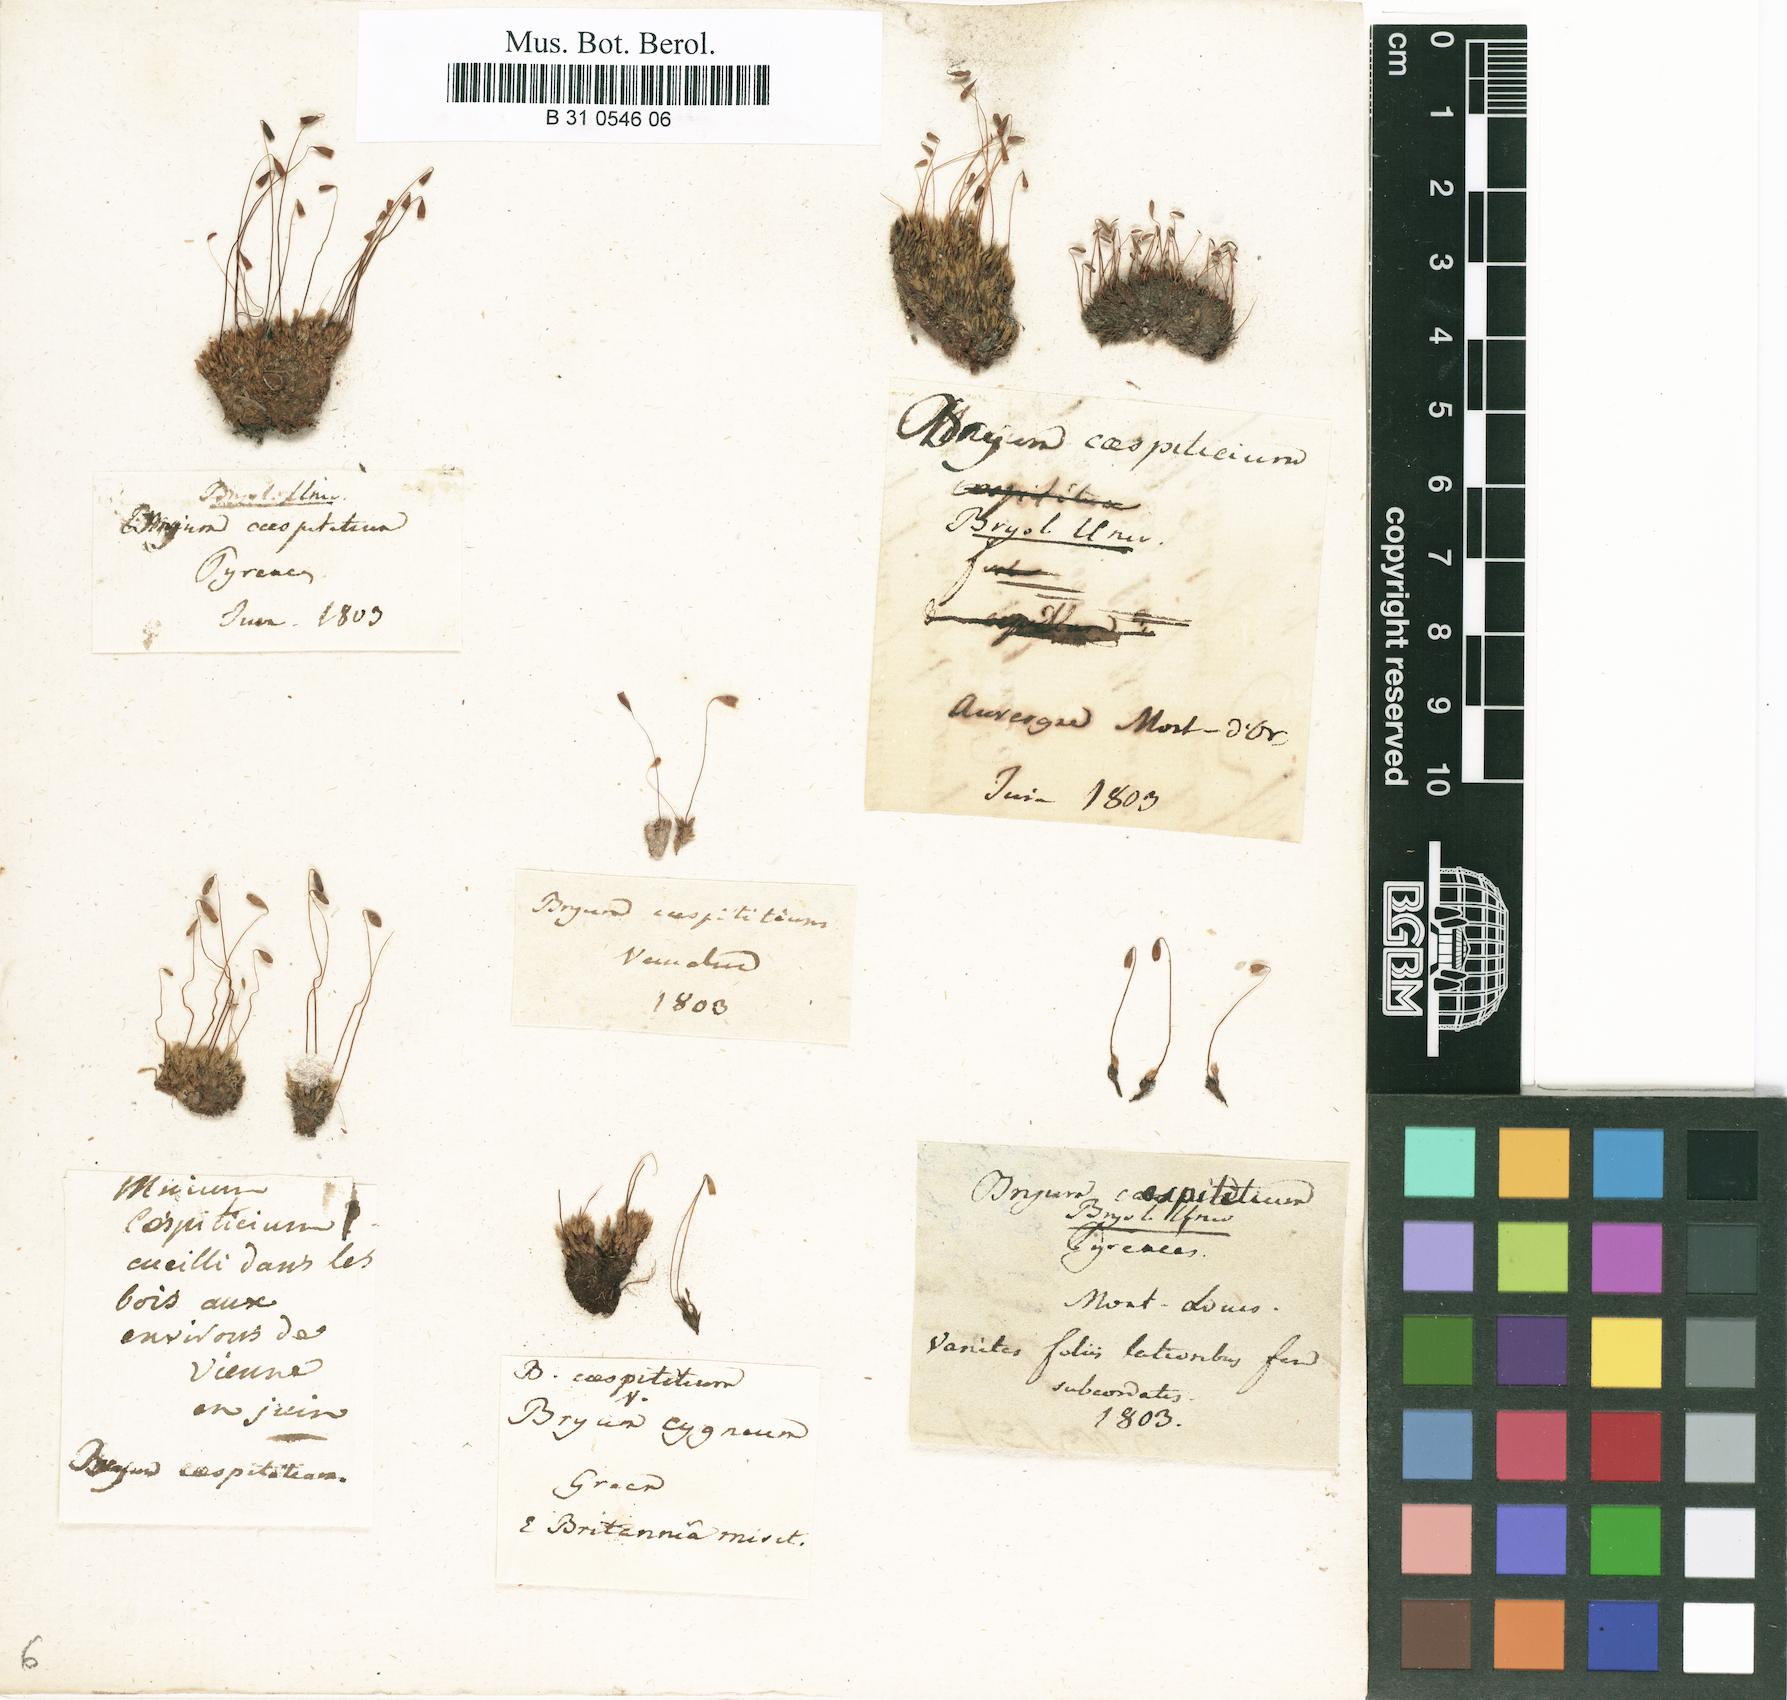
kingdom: Plantae
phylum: Bryophyta
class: Bryopsida
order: Bryales
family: Bryaceae
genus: Gemmabryum
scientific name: Gemmabryum caespiticium
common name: Handbell moss
